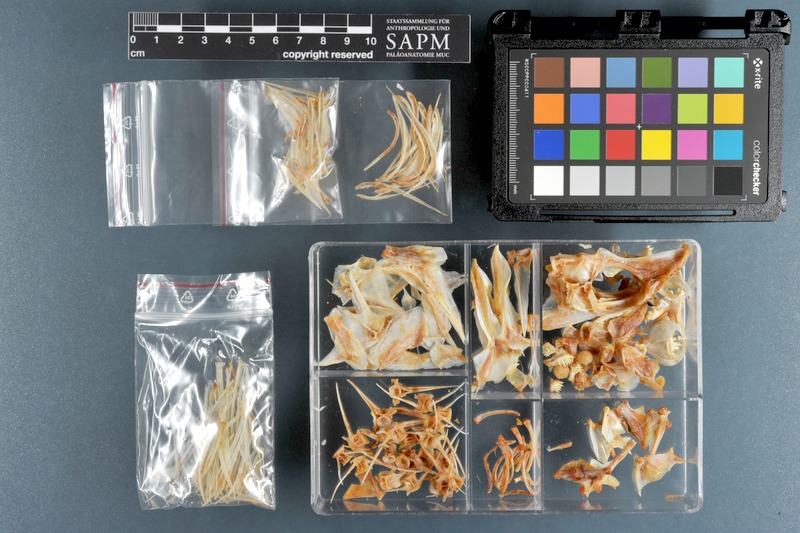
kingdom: Animalia
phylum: Chordata
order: Perciformes
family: Lethrinidae
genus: Lethrinus
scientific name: Lethrinus lentjan
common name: Redspot emperor
